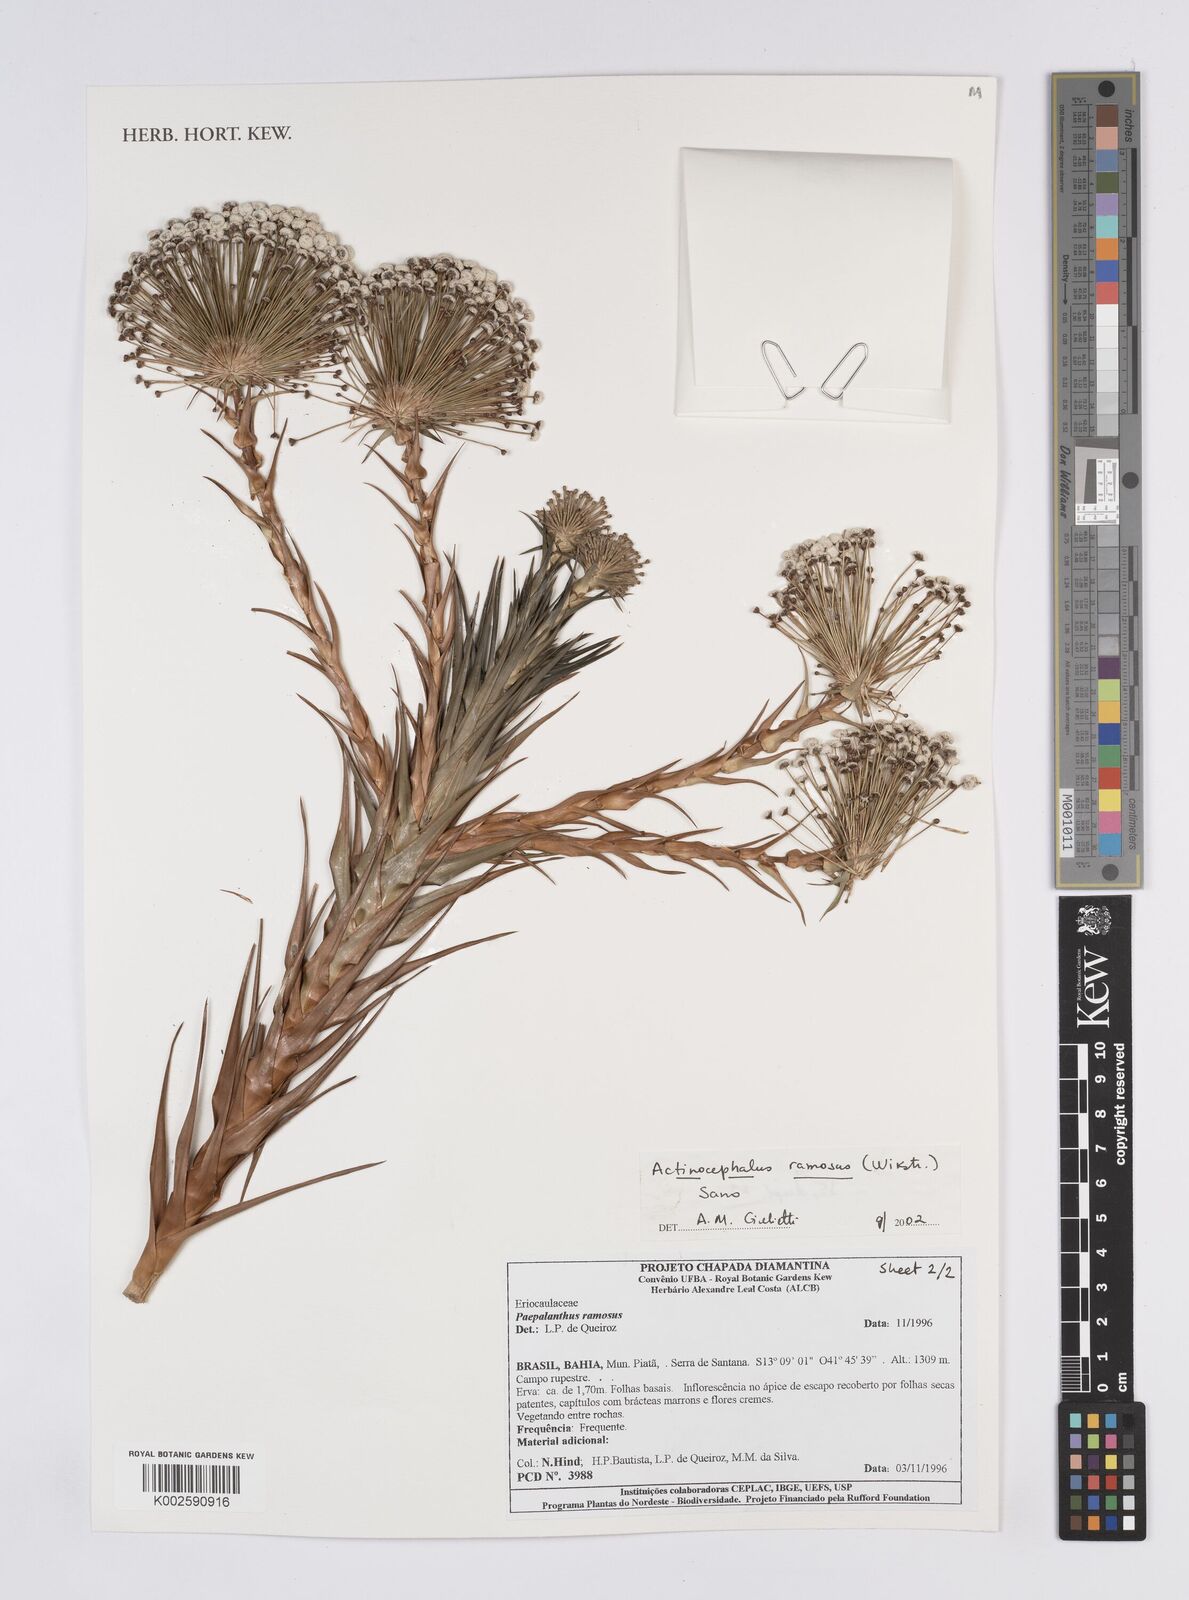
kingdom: Plantae
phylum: Tracheophyta
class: Liliopsida
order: Poales
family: Eriocaulaceae
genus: Paepalanthus
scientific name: Paepalanthus ramosus
